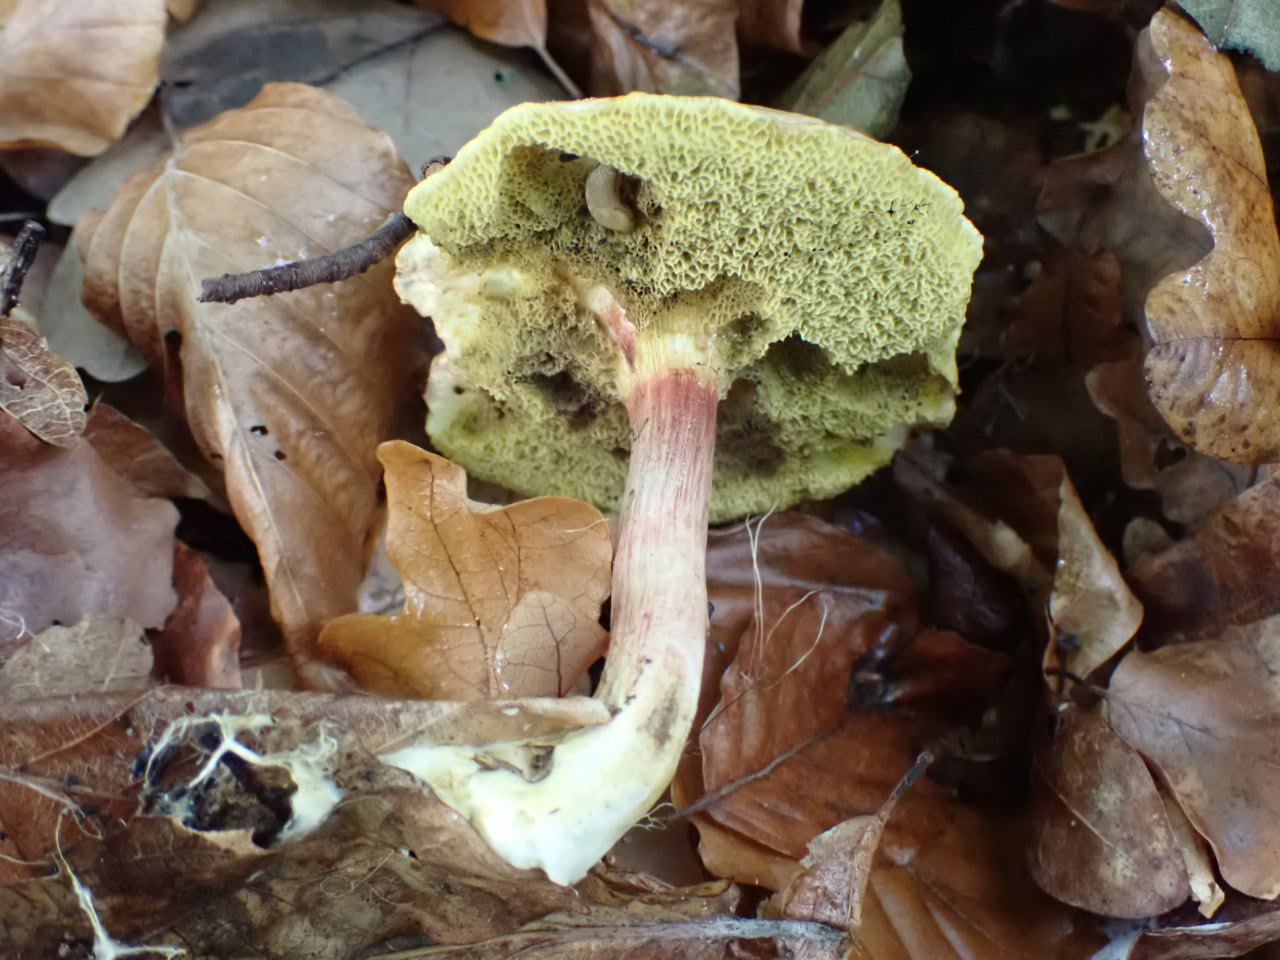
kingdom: Fungi
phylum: Basidiomycota
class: Agaricomycetes
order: Boletales
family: Boletaceae
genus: Xerocomellus
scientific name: Xerocomellus pruinatus
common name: dugget rørhat
